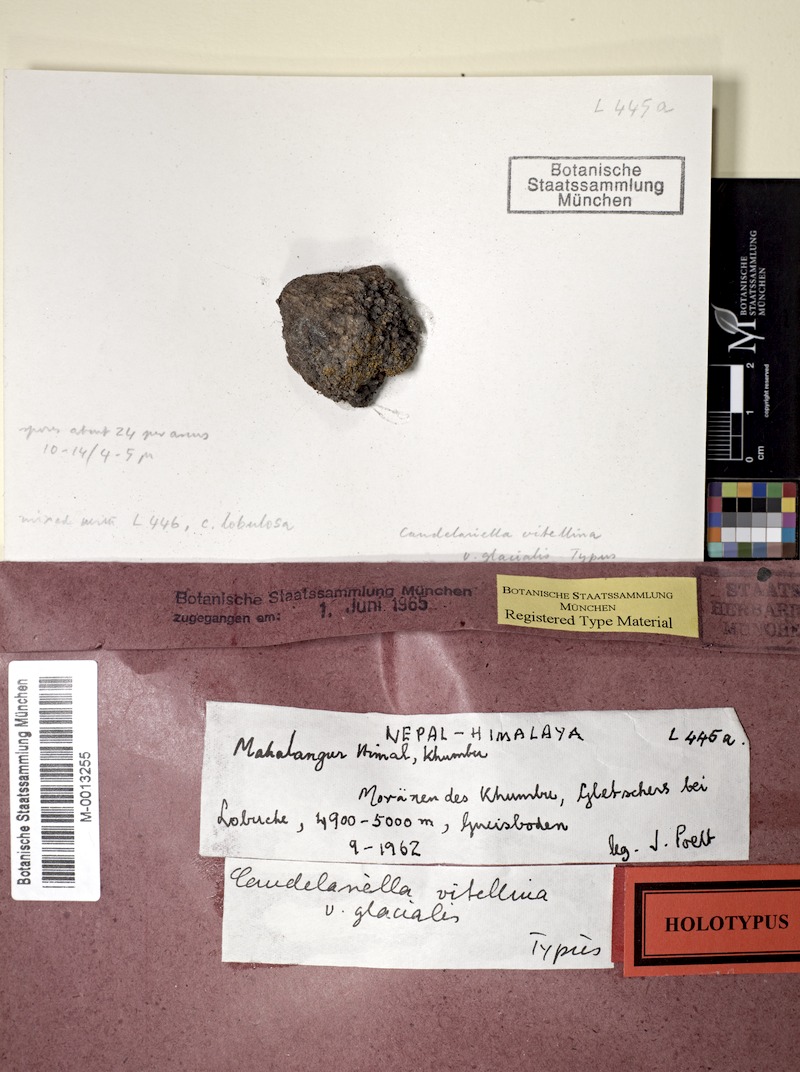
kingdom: Fungi
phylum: Ascomycota
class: Candelariomycetes
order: Candelariales
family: Candelariaceae
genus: Candelariella
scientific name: Candelariella vitellina
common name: Common goldspeck
